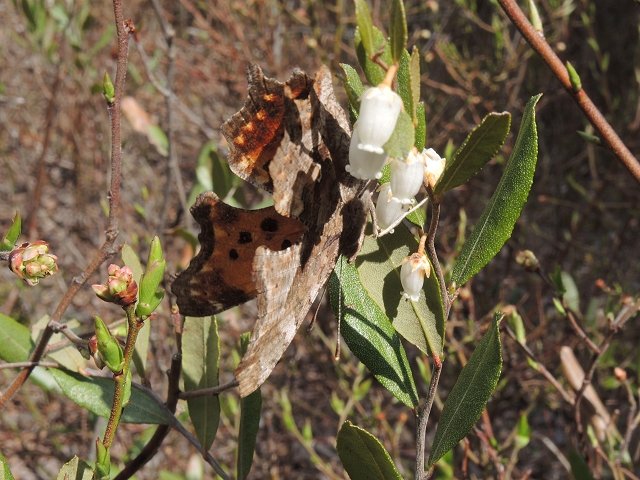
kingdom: Animalia
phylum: Arthropoda
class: Insecta
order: Lepidoptera
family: Nymphalidae
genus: Polygonia
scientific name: Polygonia comma
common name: Eastern Comma
